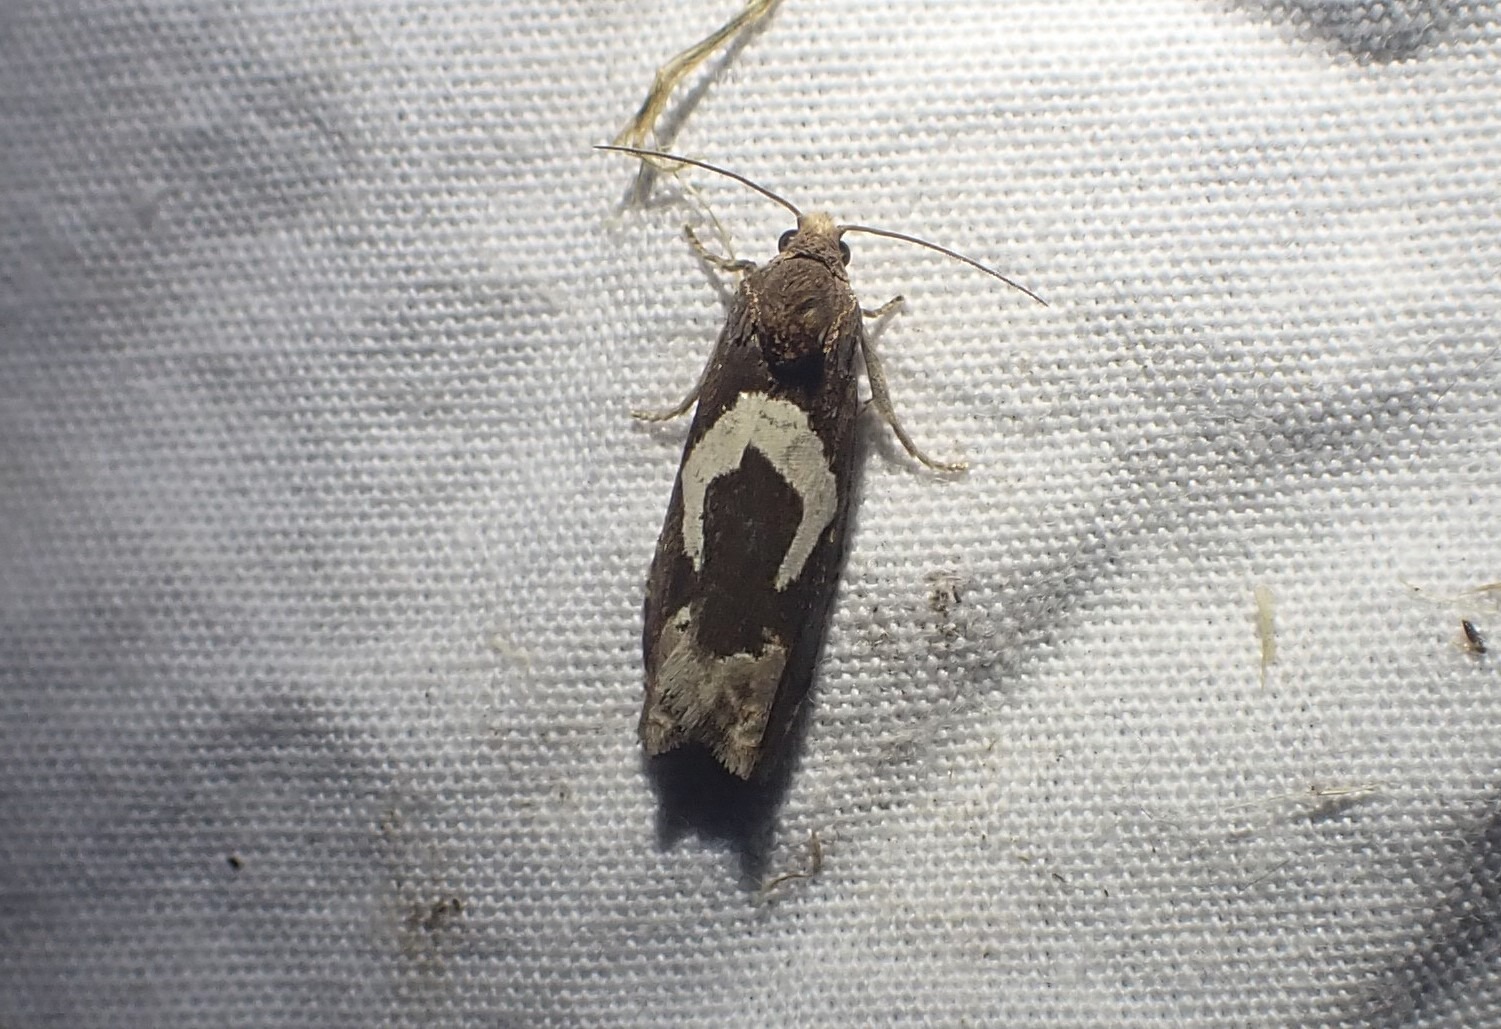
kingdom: Animalia
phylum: Arthropoda
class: Insecta
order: Lepidoptera
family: Tortricidae
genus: Epiblema
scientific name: Epiblema foenella
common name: Gråbynkegallevikler
